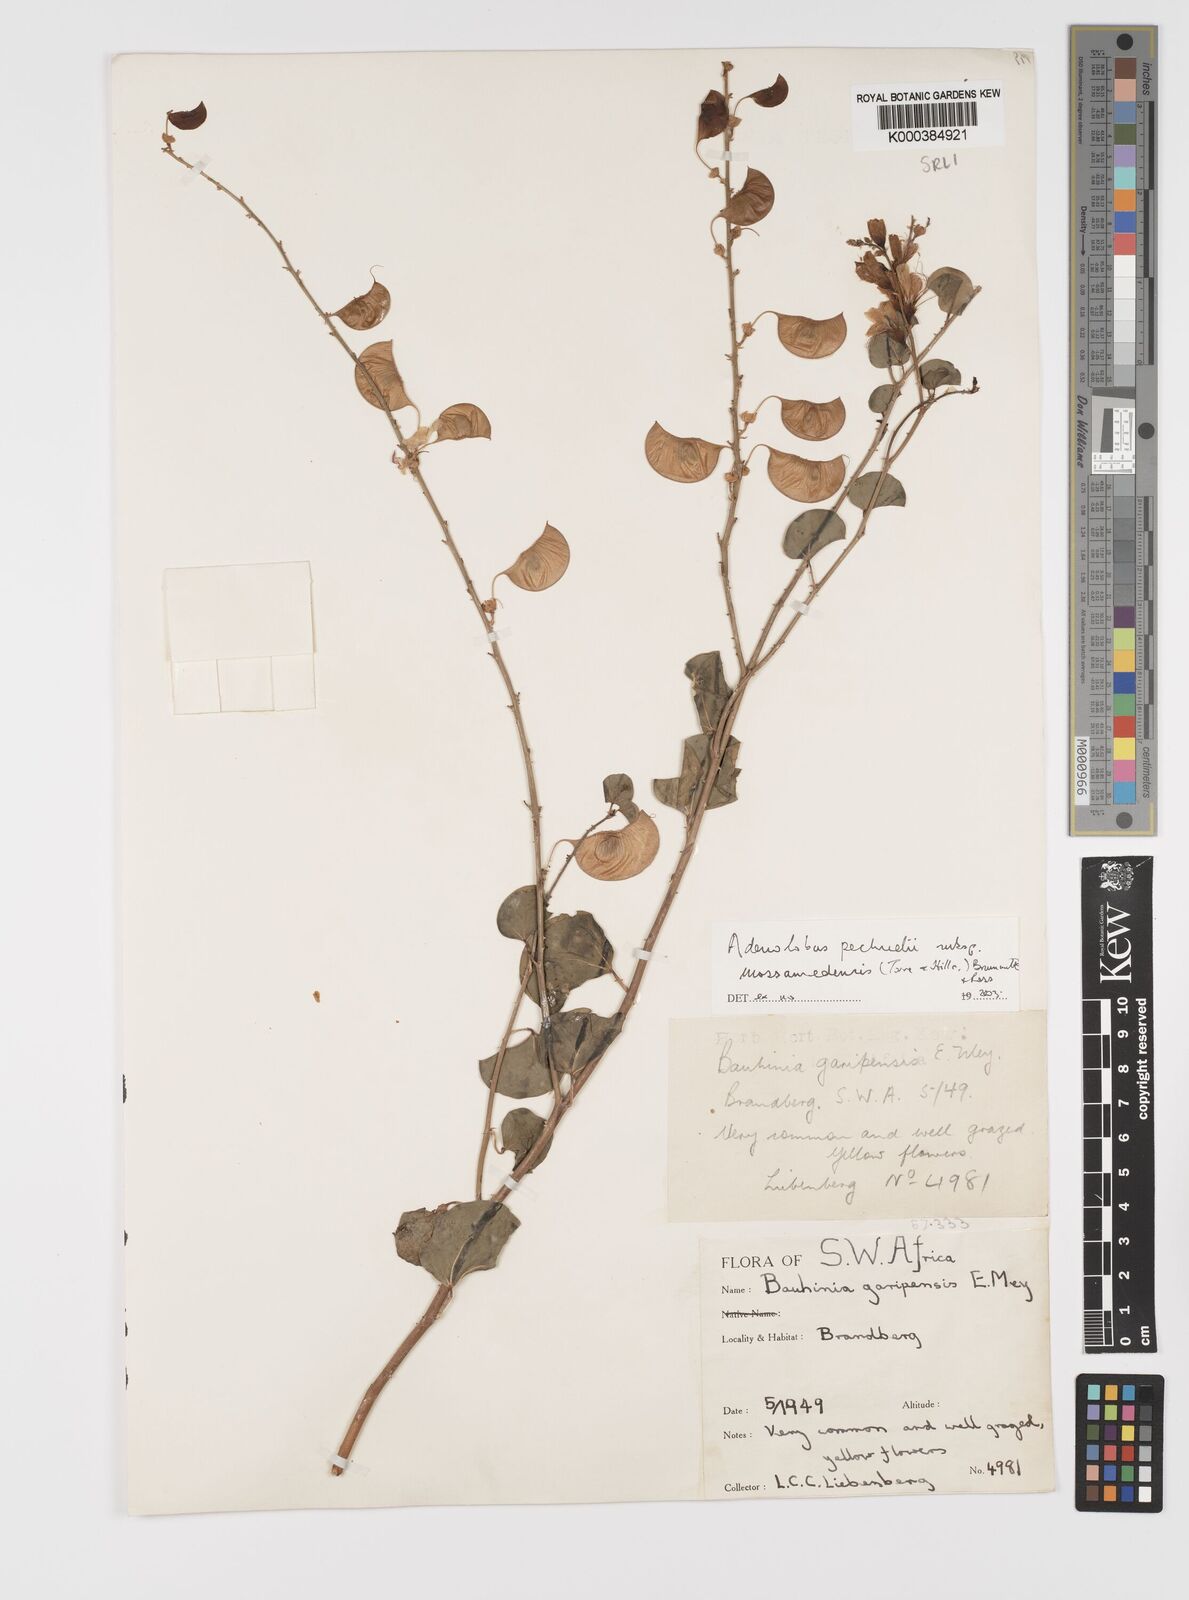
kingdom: Plantae
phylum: Tracheophyta
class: Magnoliopsida
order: Fabales
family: Fabaceae
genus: Adenolobus
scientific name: Adenolobus pechuelii
